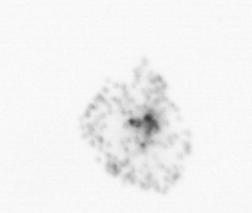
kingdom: Chromista
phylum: Ochrophyta
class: Bacillariophyceae
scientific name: Bacillariophyceae
